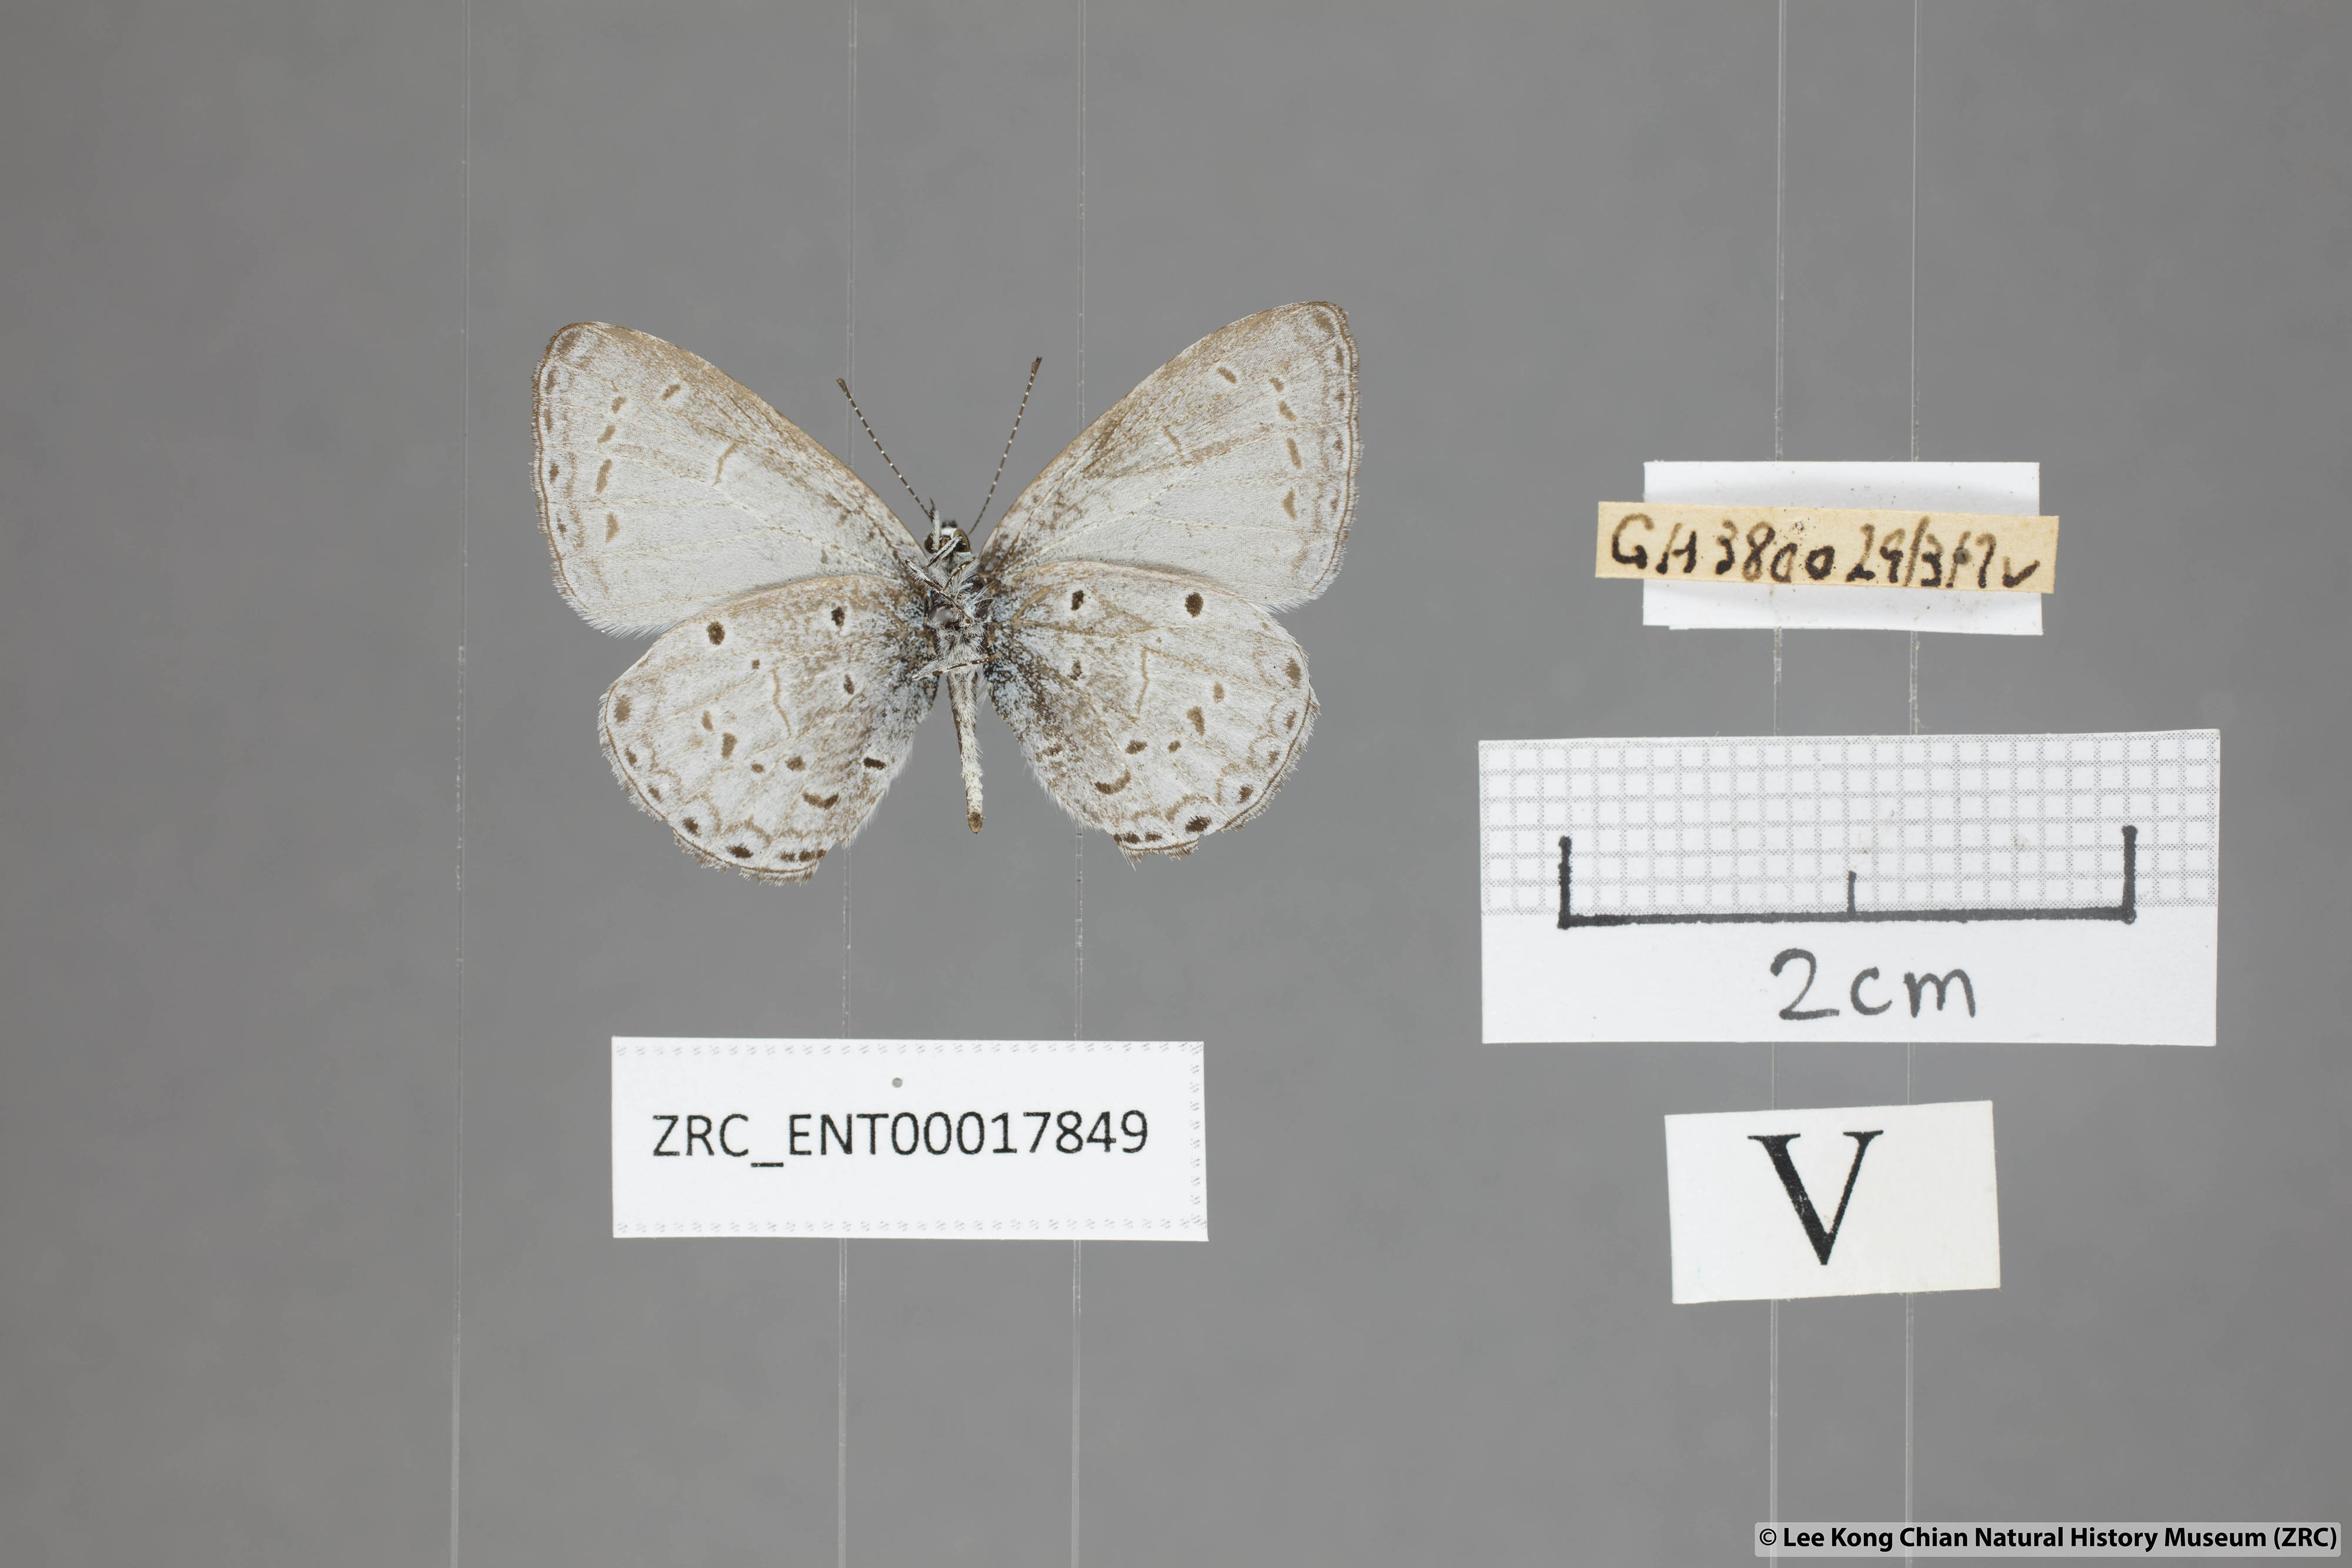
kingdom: Animalia
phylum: Arthropoda
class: Insecta
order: Lepidoptera
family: Lycaenidae
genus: Udara
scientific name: Udara
